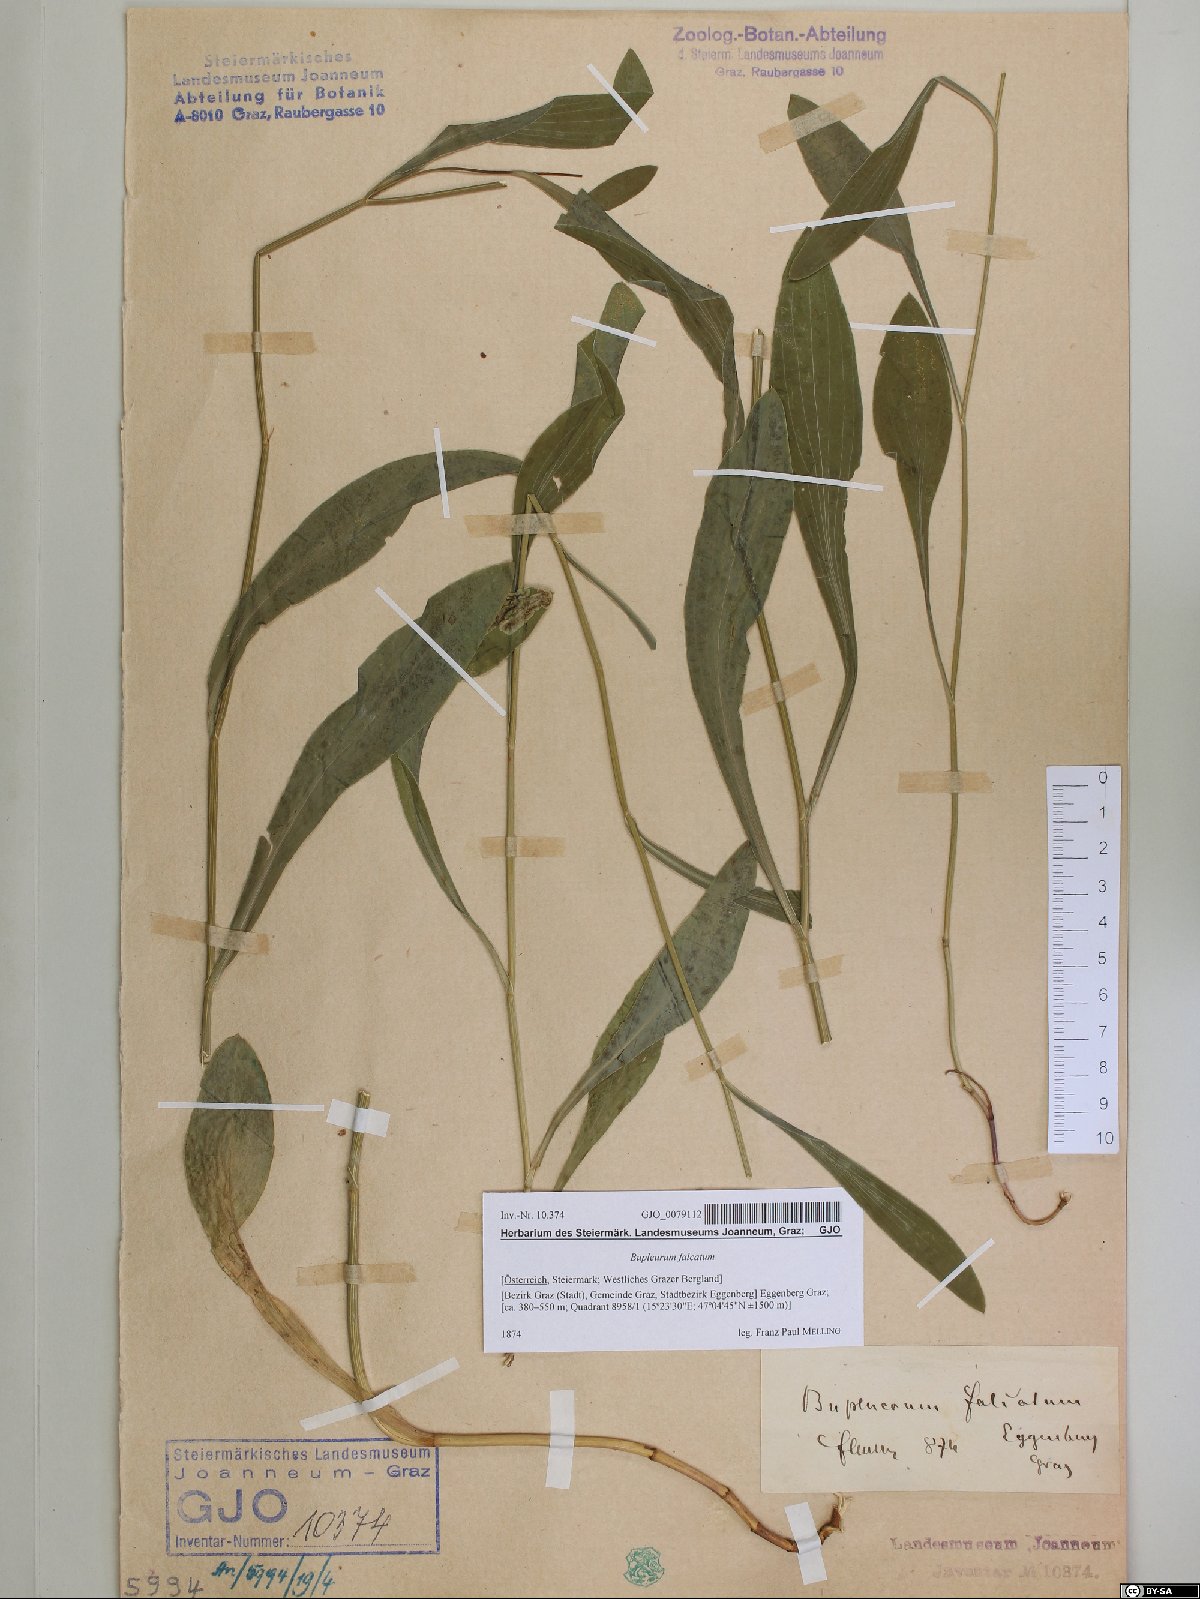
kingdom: Plantae
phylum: Tracheophyta
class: Magnoliopsida
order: Apiales
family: Apiaceae
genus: Bupleurum
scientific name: Bupleurum falcatum
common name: Sickle-leaved hare's-ear
